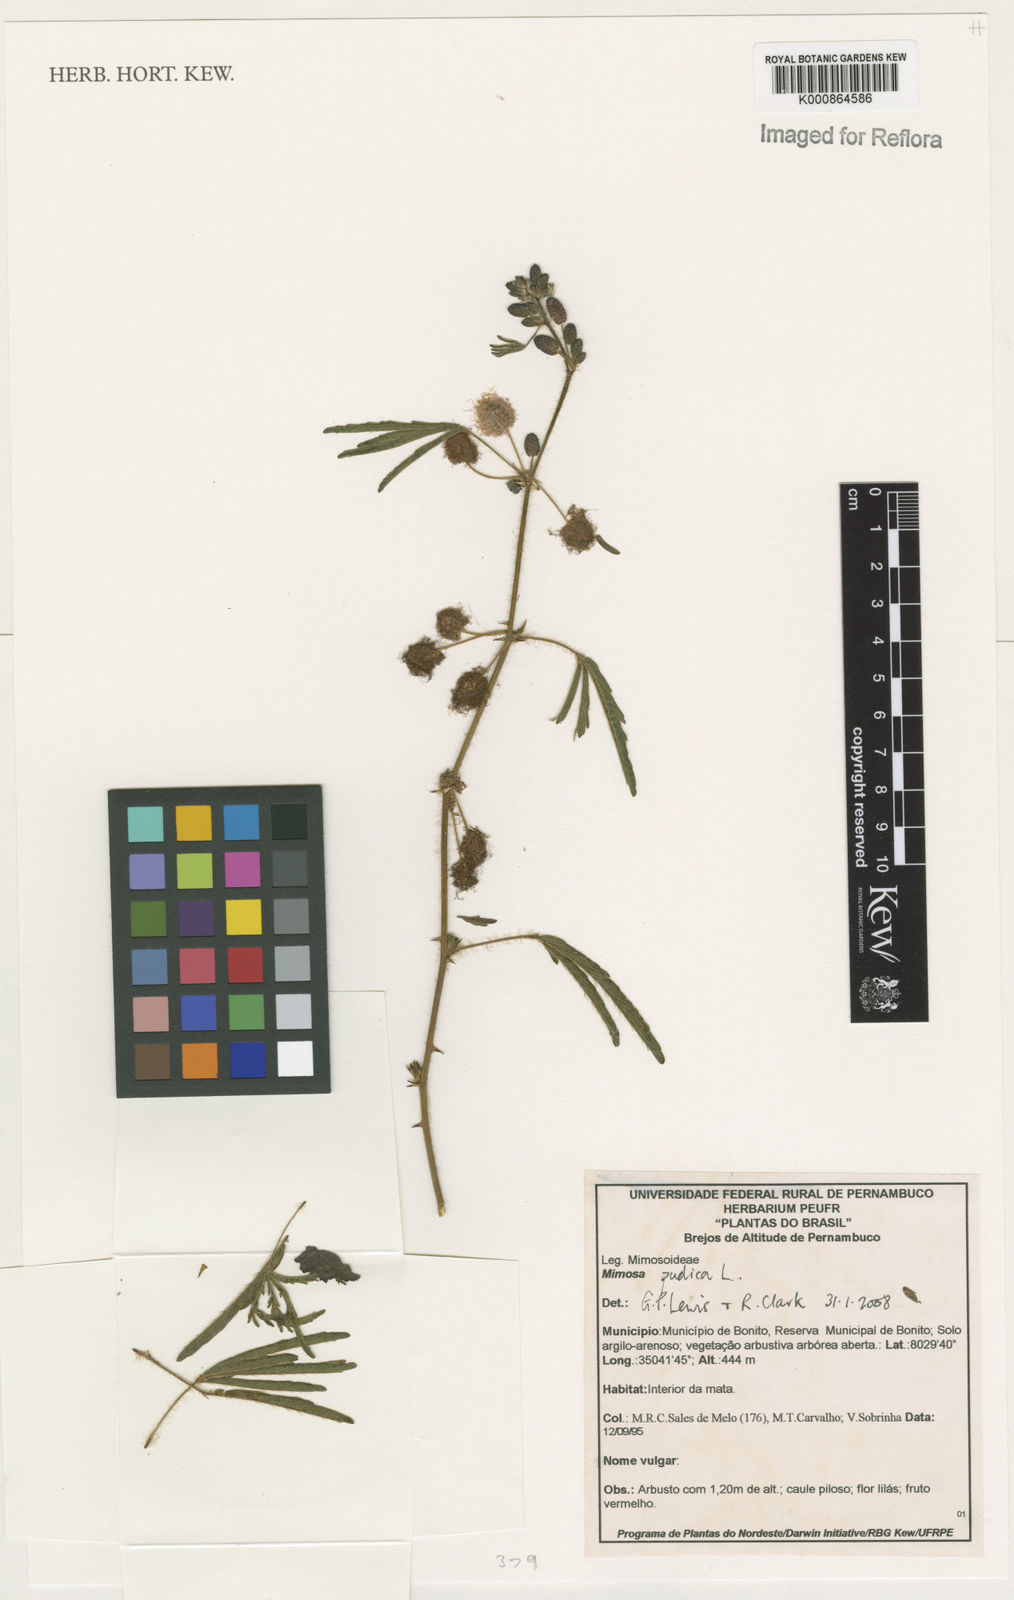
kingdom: Plantae
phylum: Tracheophyta
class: Magnoliopsida
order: Fabales
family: Fabaceae
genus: Mimosa
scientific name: Mimosa pudica
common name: Sensitive plant
